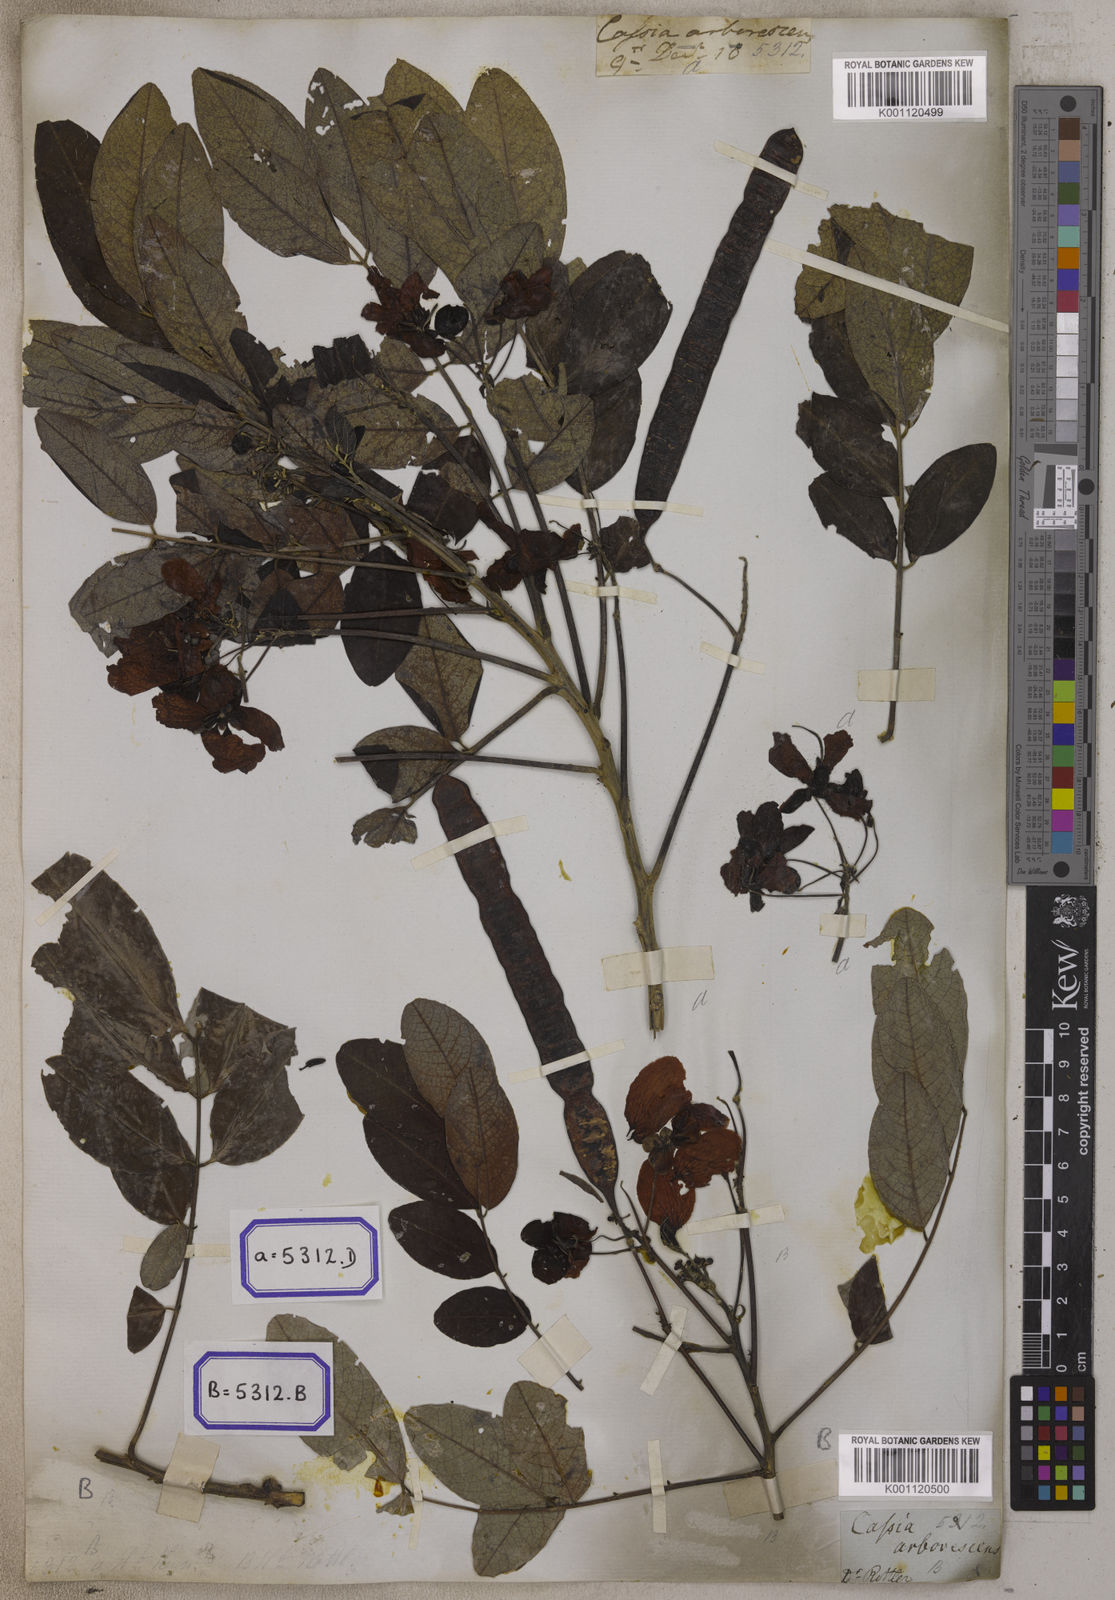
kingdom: Plantae
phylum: Tracheophyta
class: Magnoliopsida
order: Fabales
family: Fabaceae
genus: Senna
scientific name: Senna sulfurea
